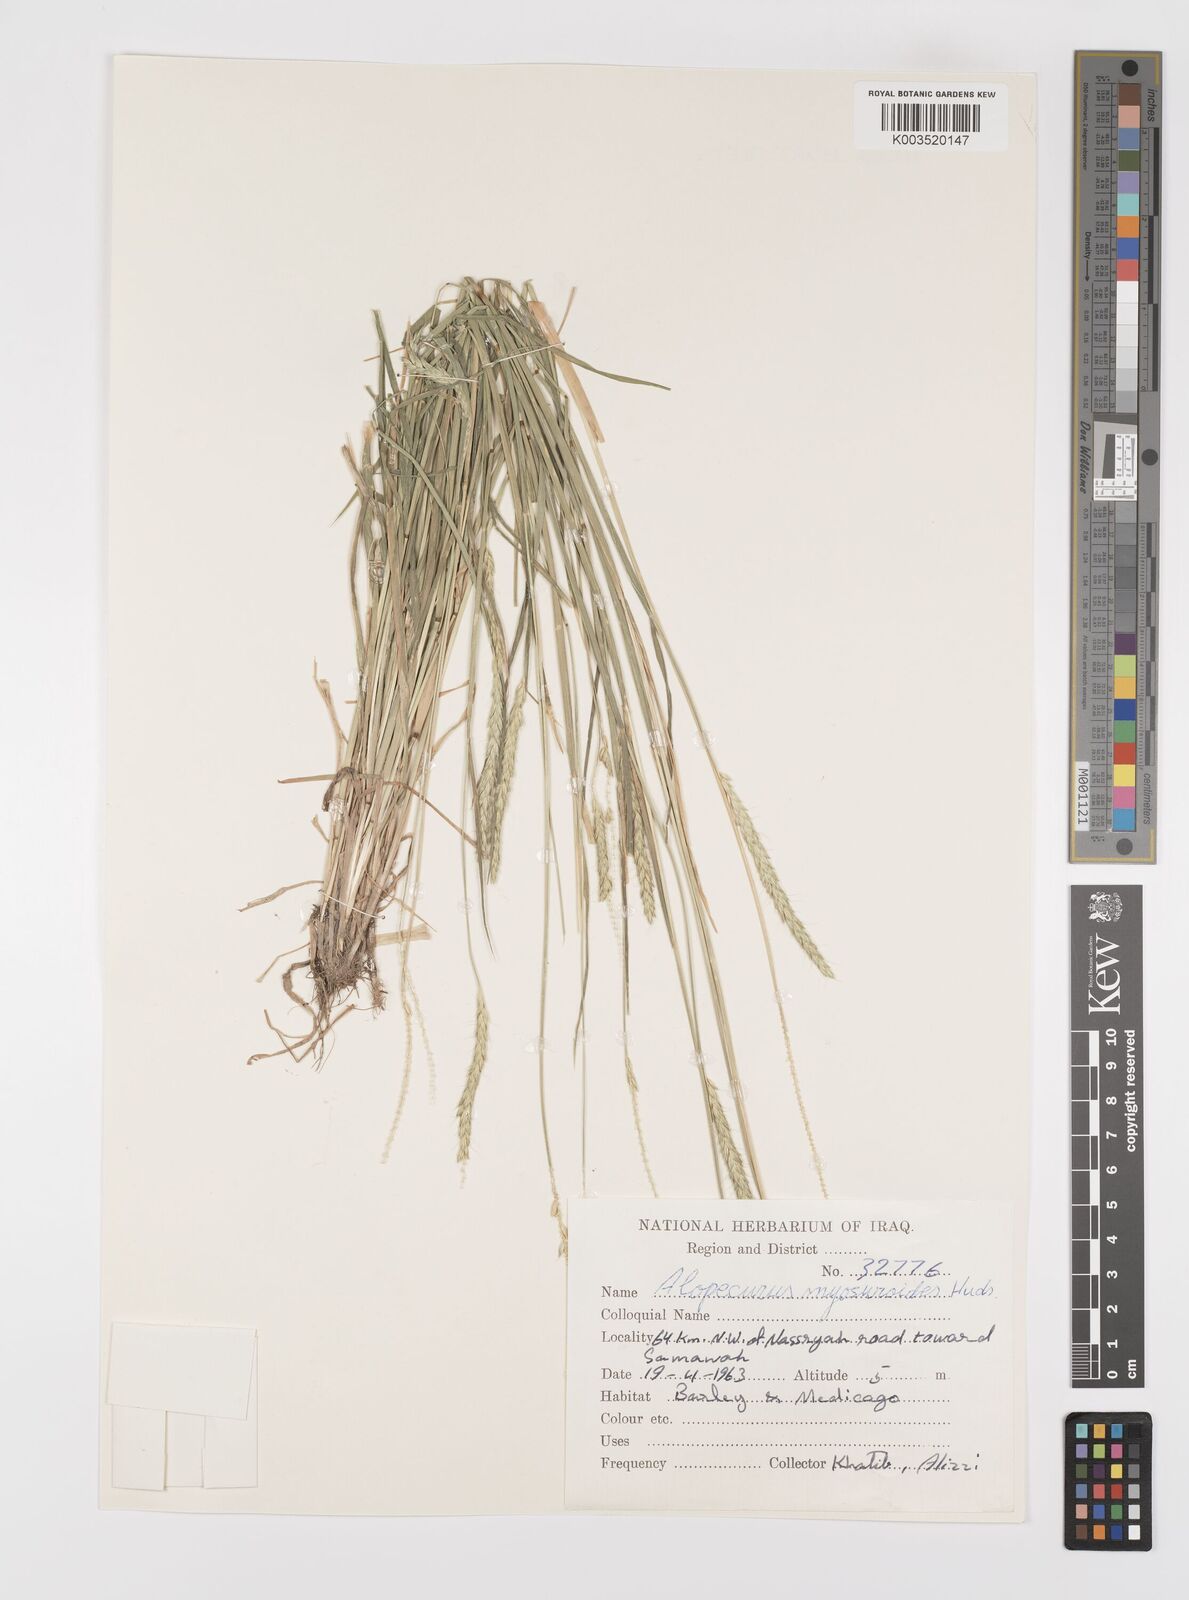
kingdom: Plantae
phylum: Tracheophyta
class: Liliopsida
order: Poales
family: Poaceae
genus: Alopecurus
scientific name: Alopecurus myosuroides
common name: Black-grass
